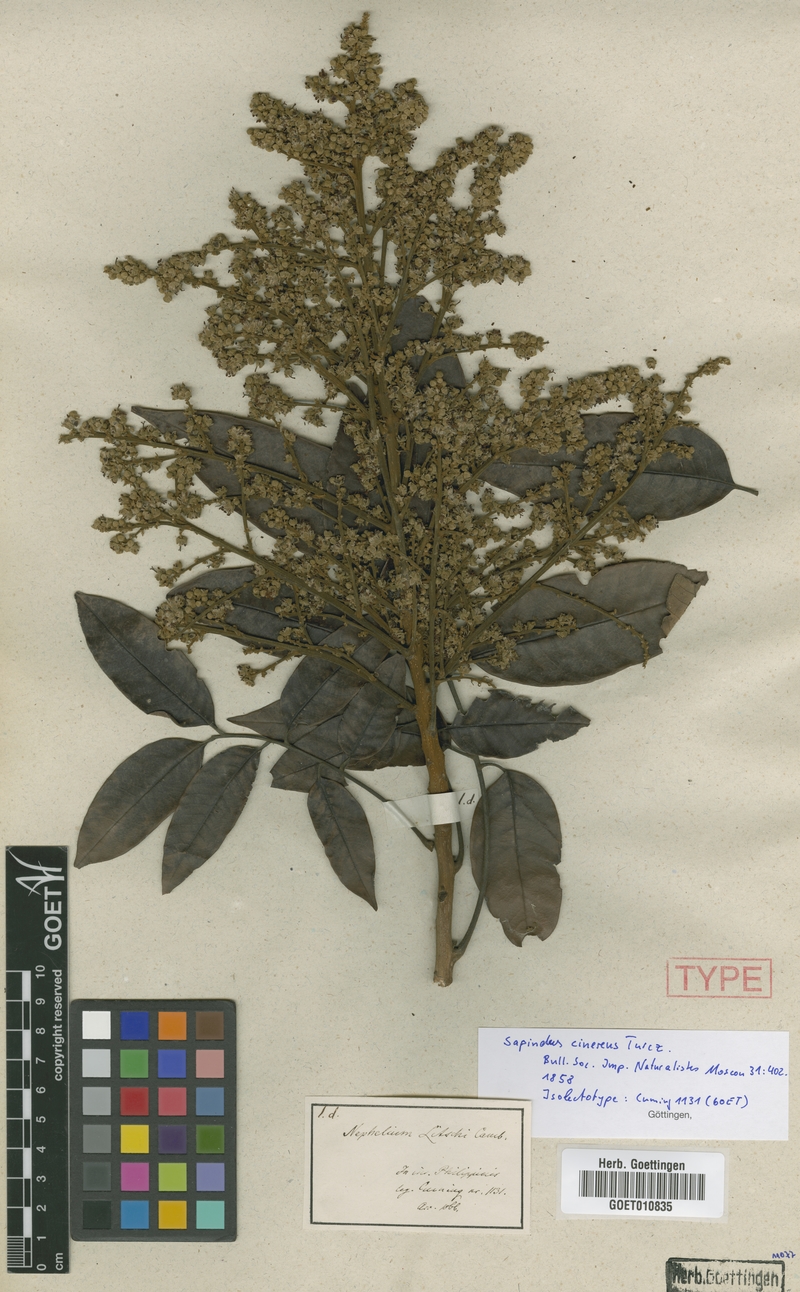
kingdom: Plantae
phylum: Tracheophyta
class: Magnoliopsida
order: Sapindales
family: Sapindaceae
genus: Dimocarpus
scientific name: Dimocarpus
